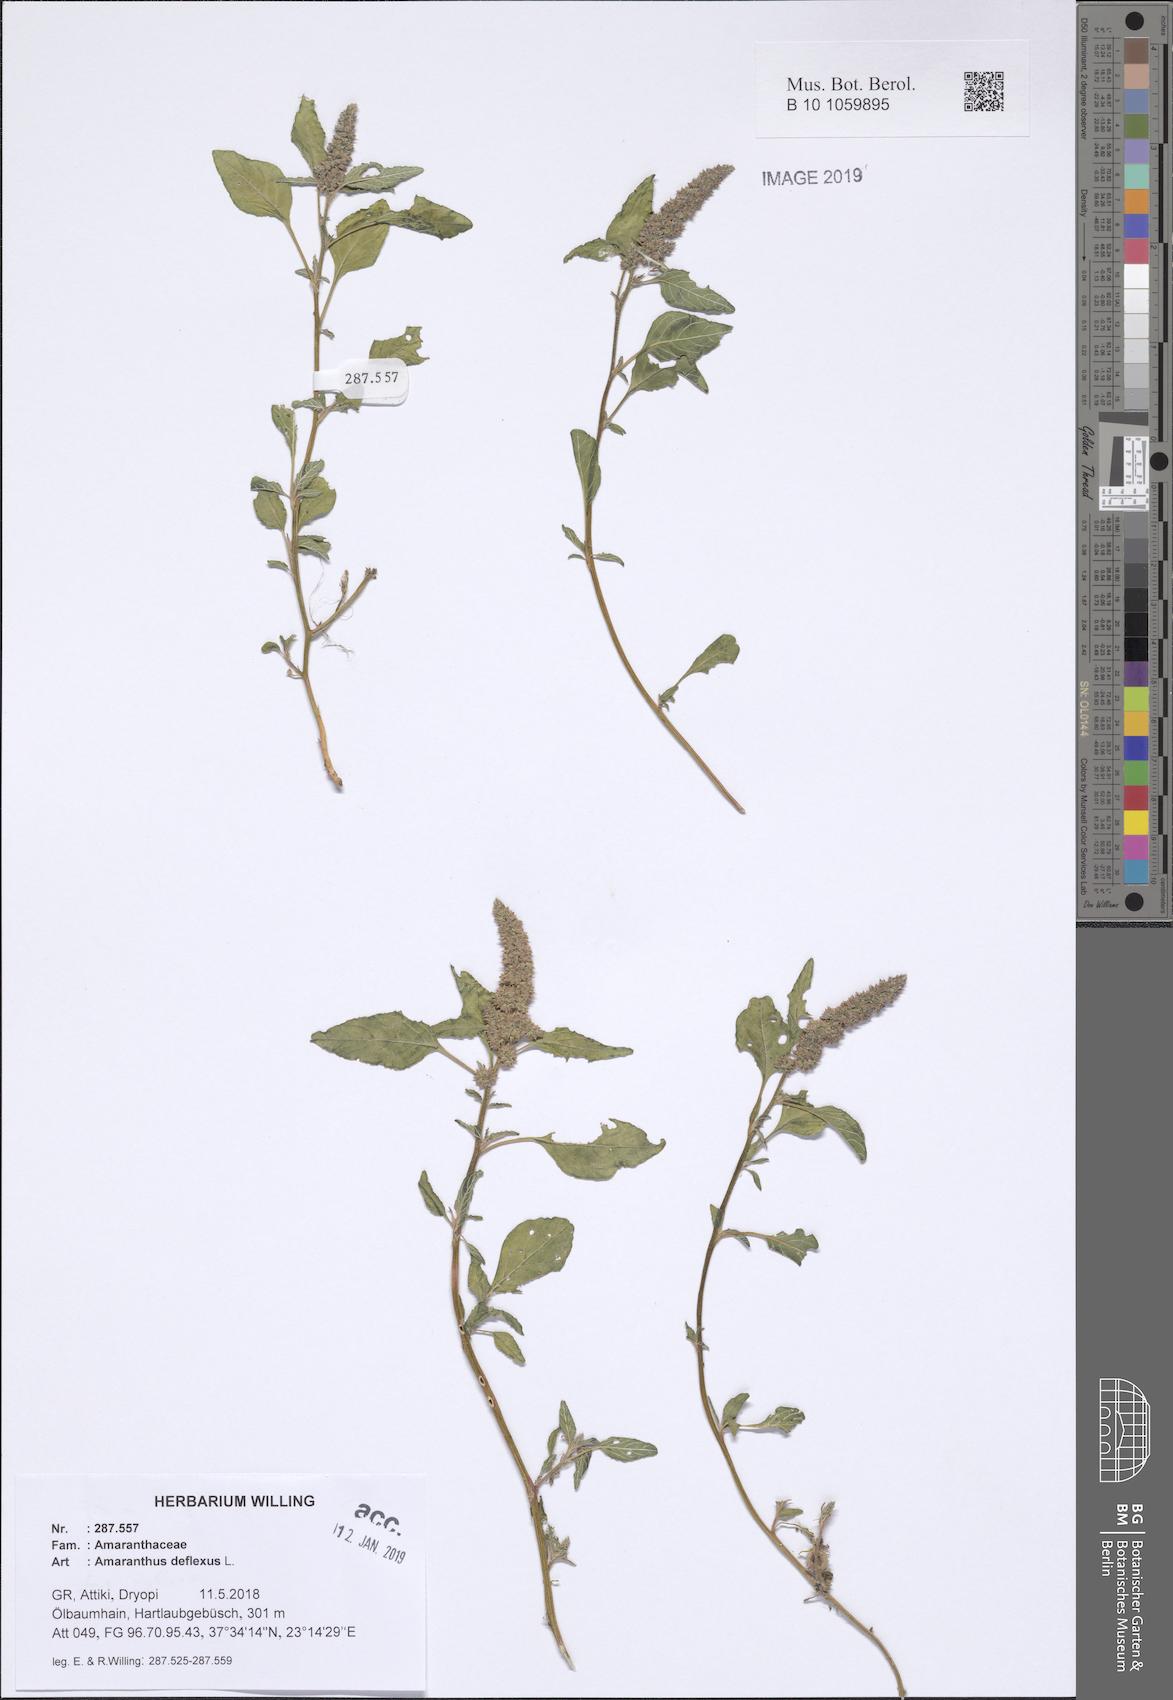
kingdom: Plantae
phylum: Tracheophyta
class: Magnoliopsida
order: Caryophyllales
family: Amaranthaceae
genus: Amaranthus
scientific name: Amaranthus deflexus
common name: Perennial pigweed
